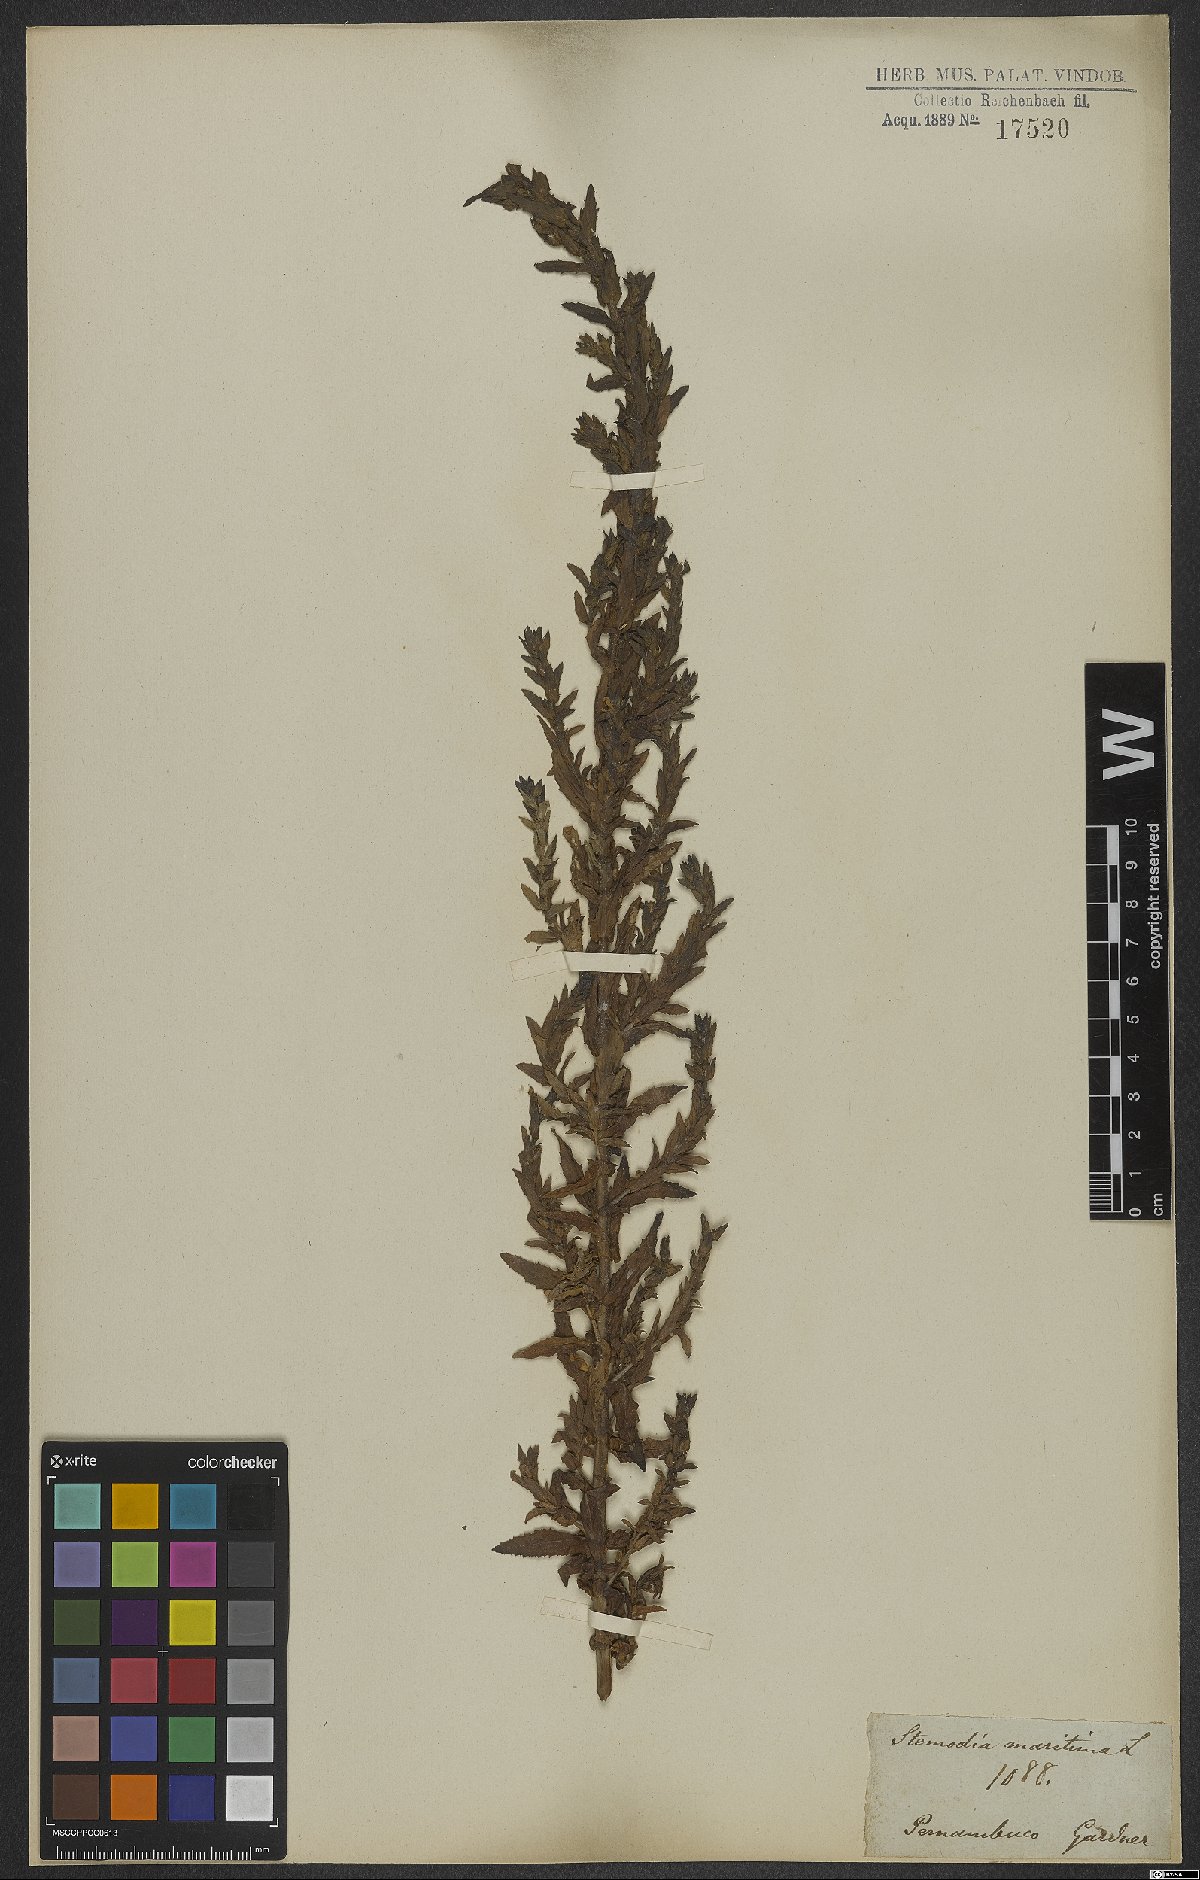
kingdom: Plantae
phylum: Tracheophyta
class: Magnoliopsida
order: Lamiales
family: Plantaginaceae
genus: Stemodia
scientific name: Stemodia maritima
